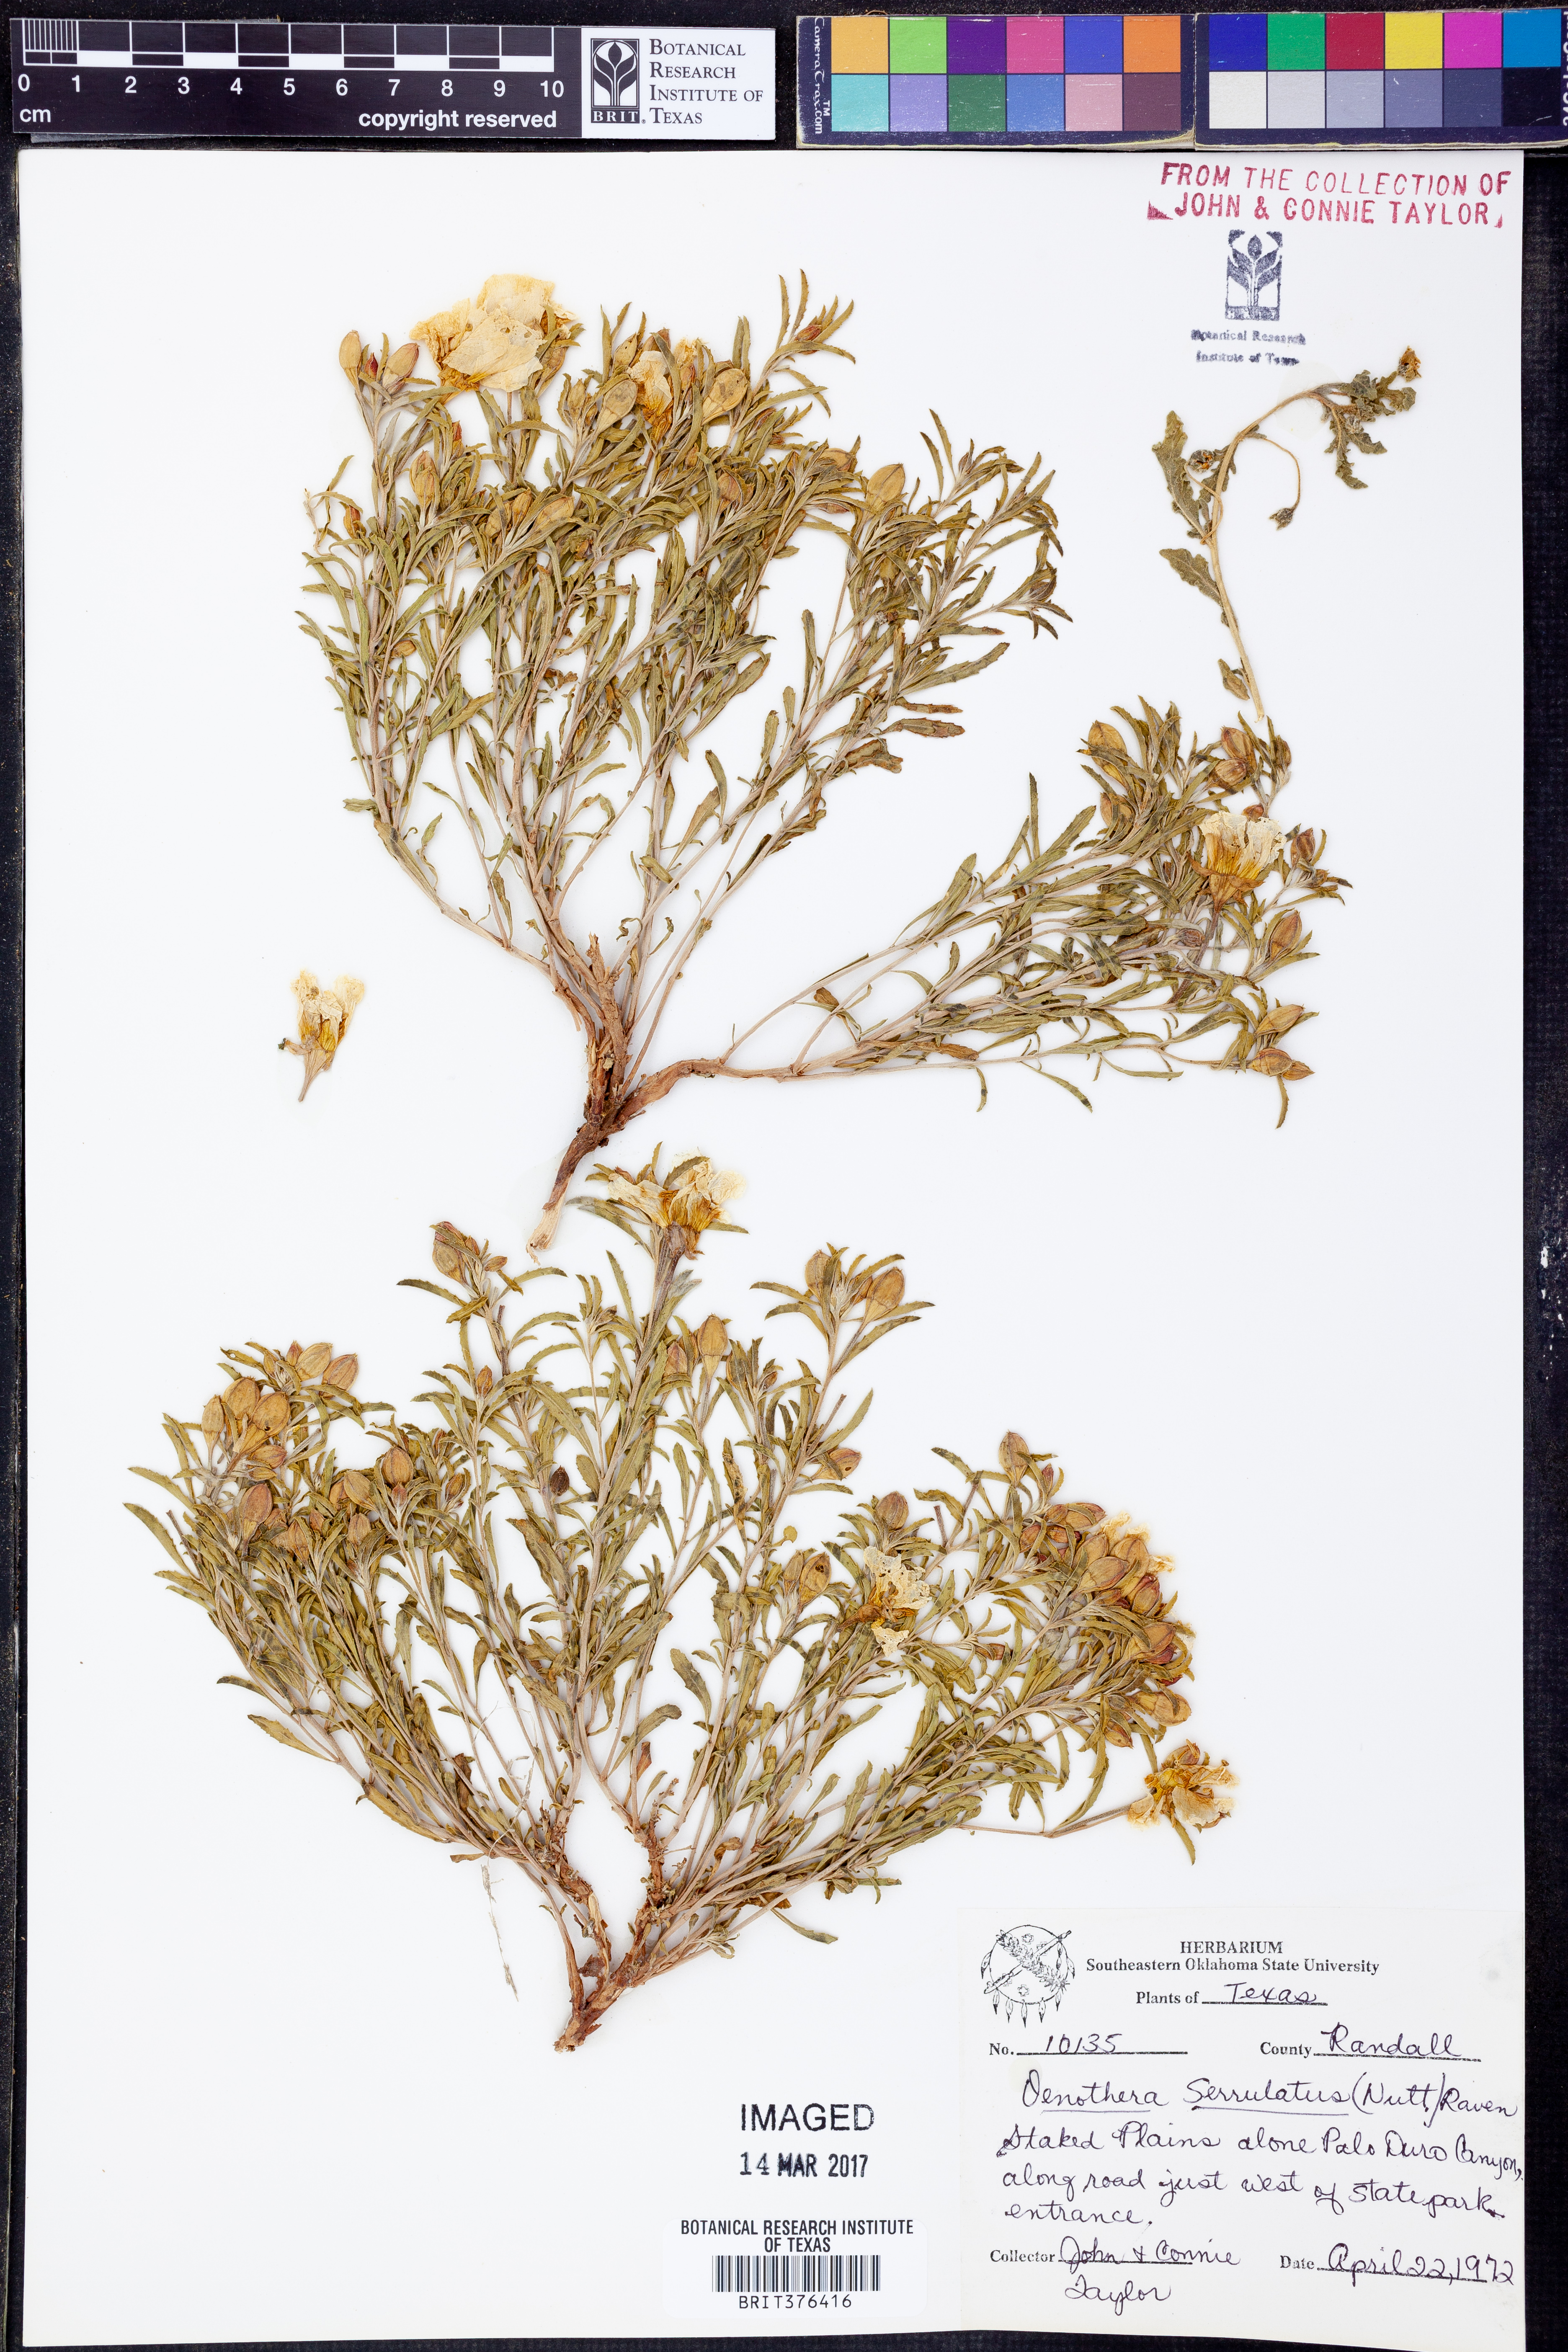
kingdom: Plantae
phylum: Tracheophyta
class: Magnoliopsida
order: Myrtales
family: Onagraceae
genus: Oenothera
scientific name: Oenothera serrulata
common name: Half-shrub calylophus
